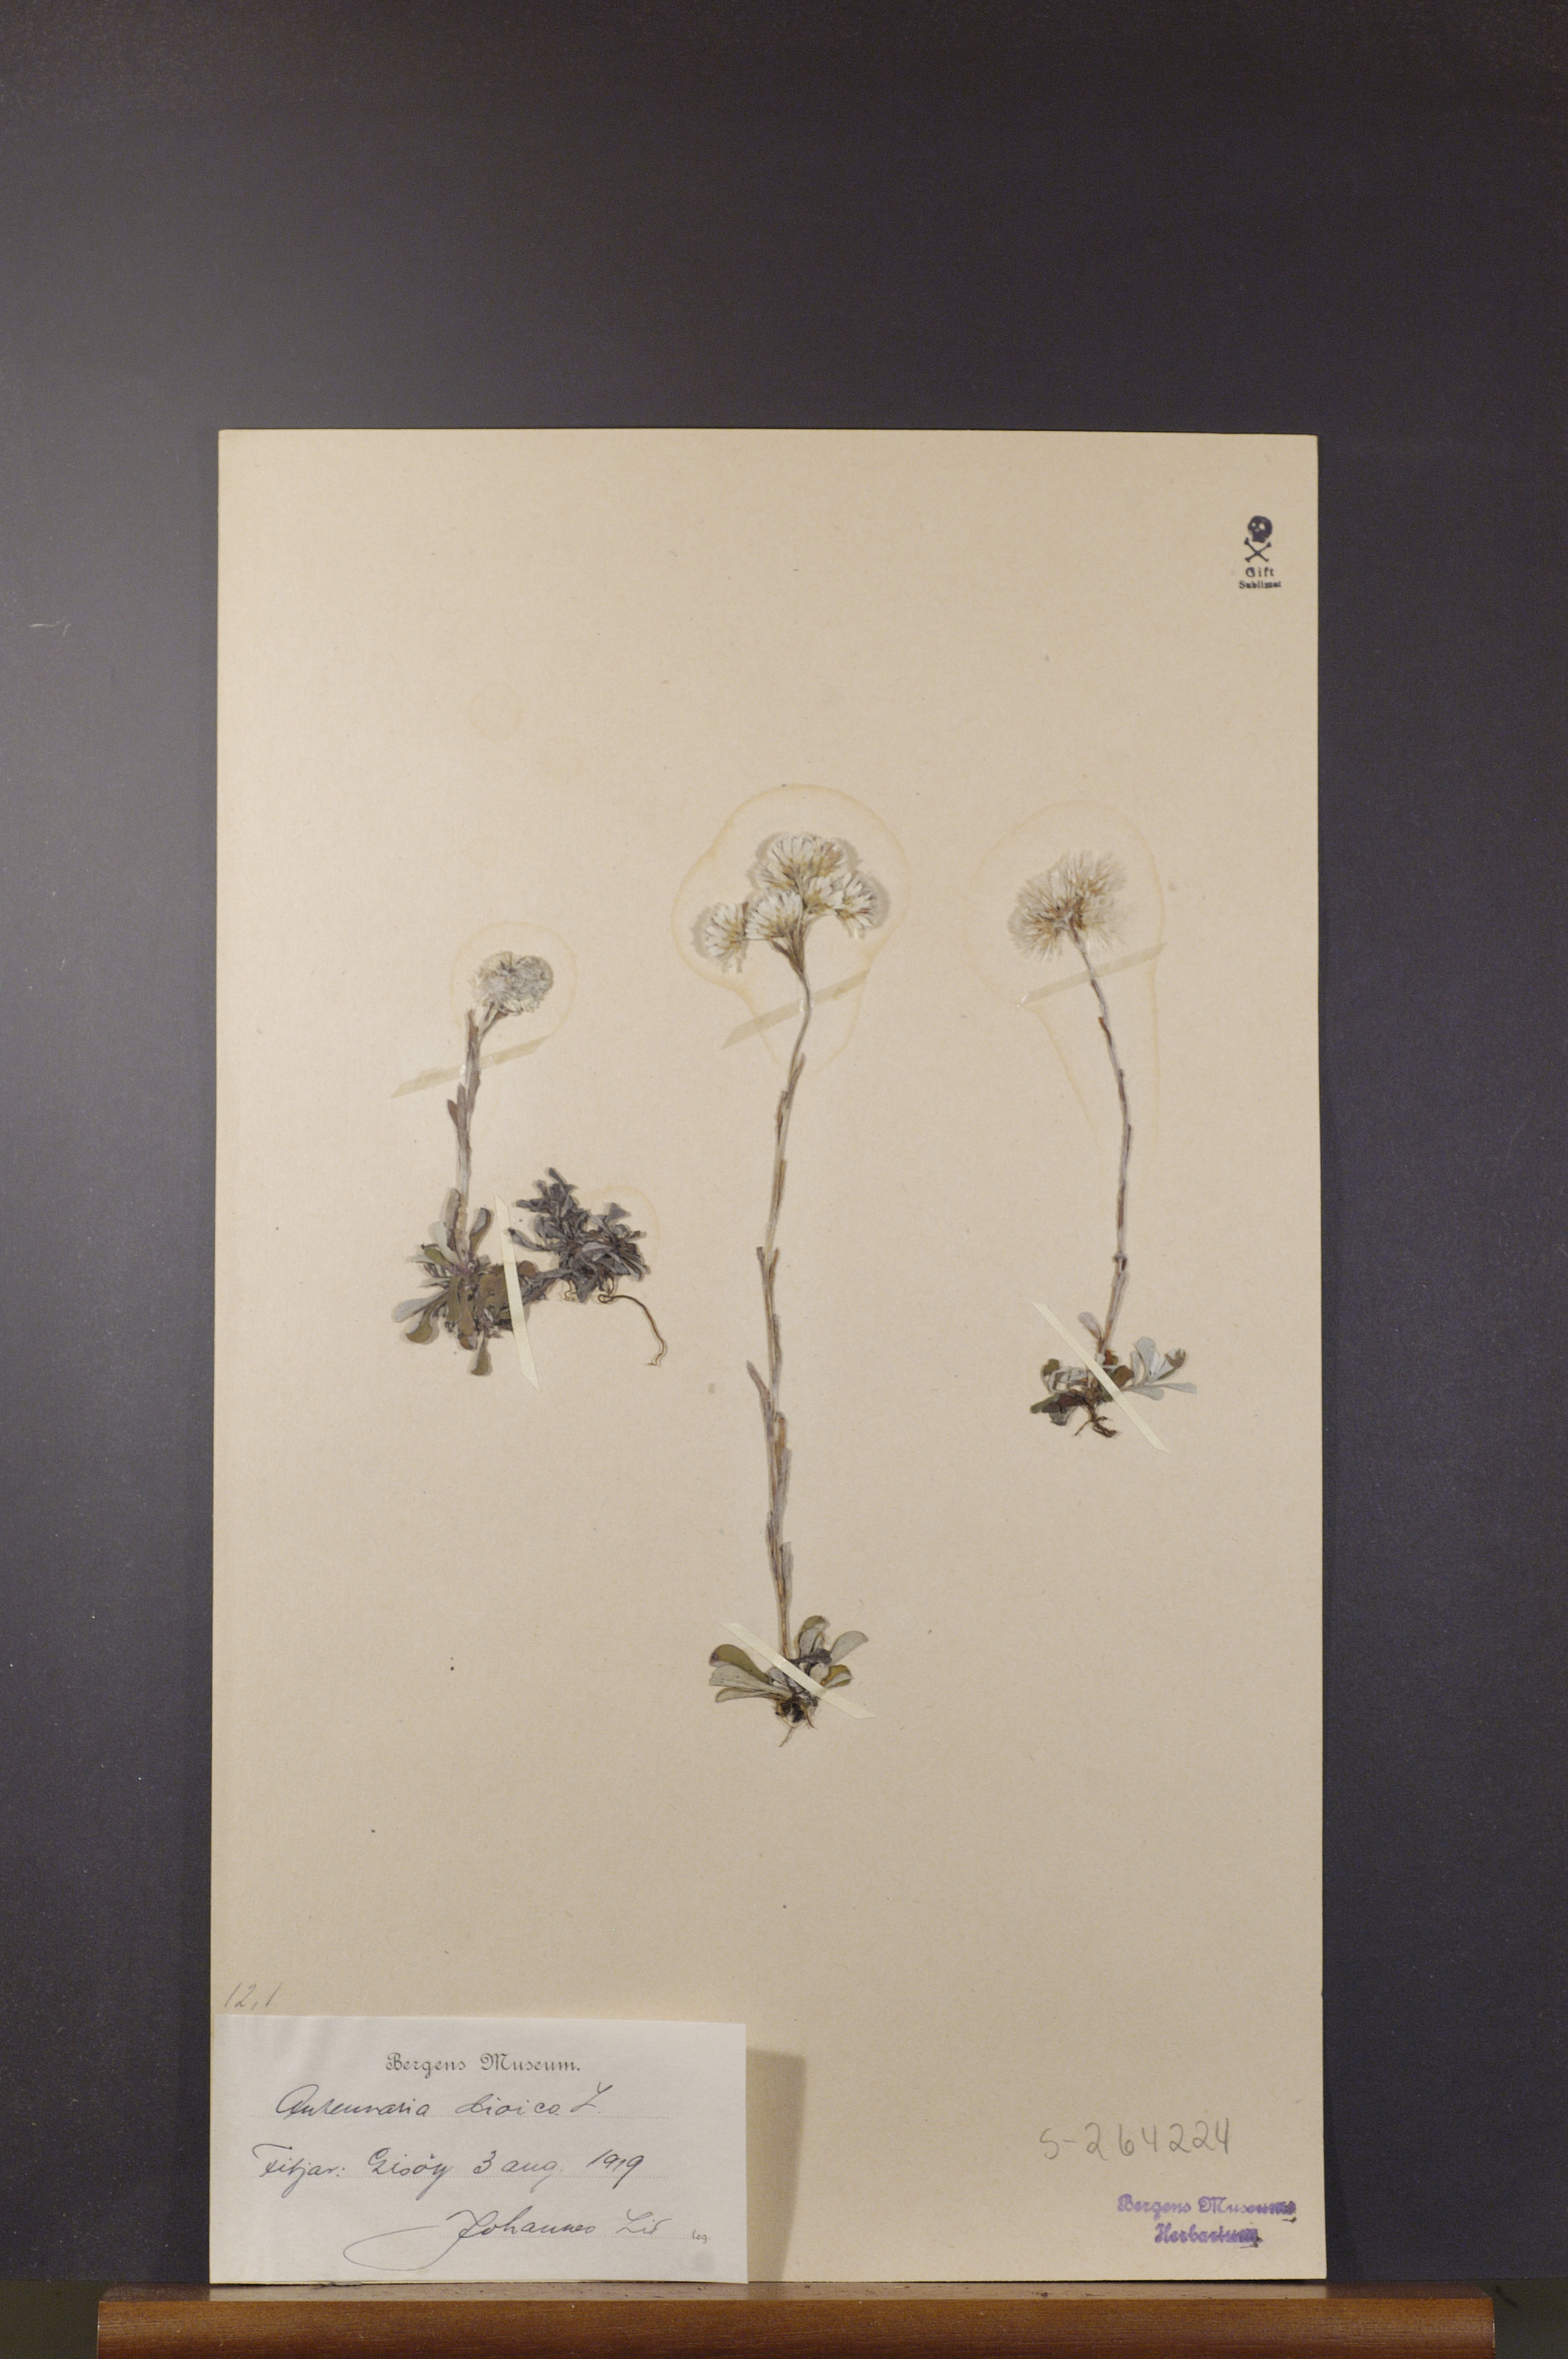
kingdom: Plantae
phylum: Tracheophyta
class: Magnoliopsida
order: Asterales
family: Asteraceae
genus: Antennaria
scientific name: Antennaria dioica
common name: Mountain everlasting
